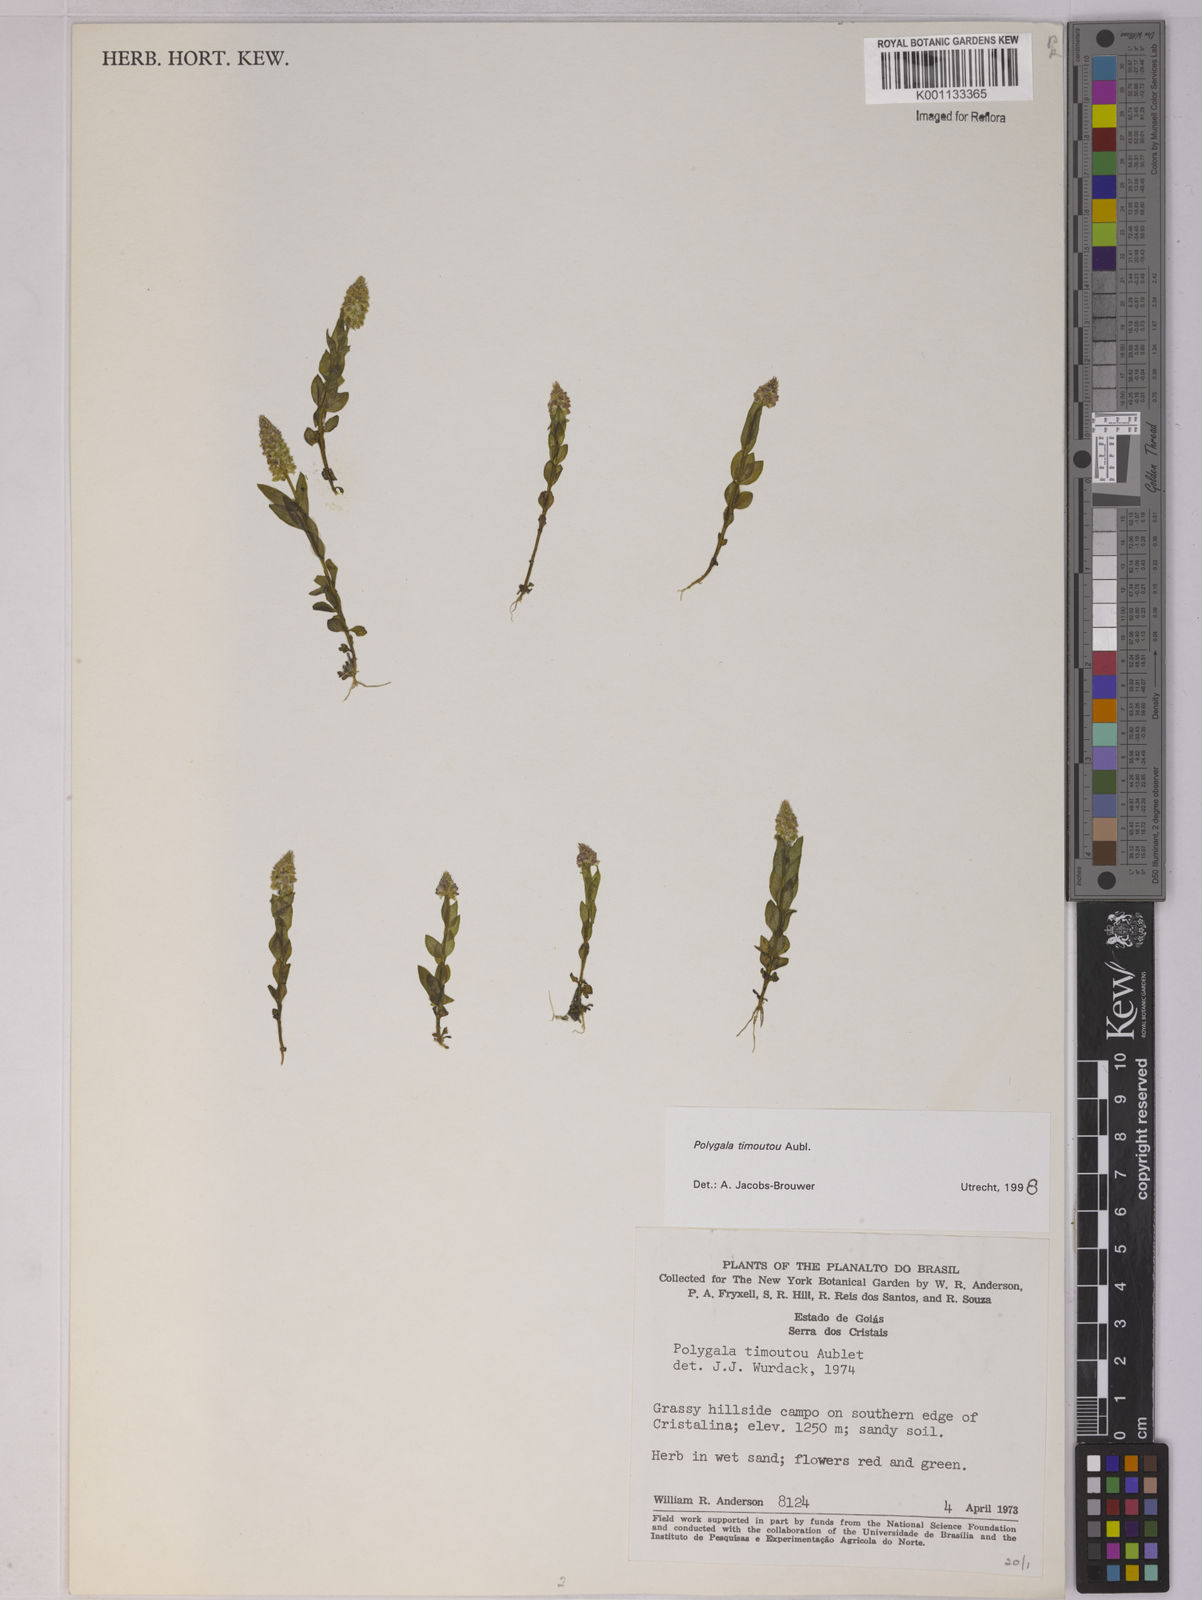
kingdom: Plantae
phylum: Tracheophyta
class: Magnoliopsida
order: Fabales
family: Polygalaceae
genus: Polygala
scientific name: Polygala timoutoides
